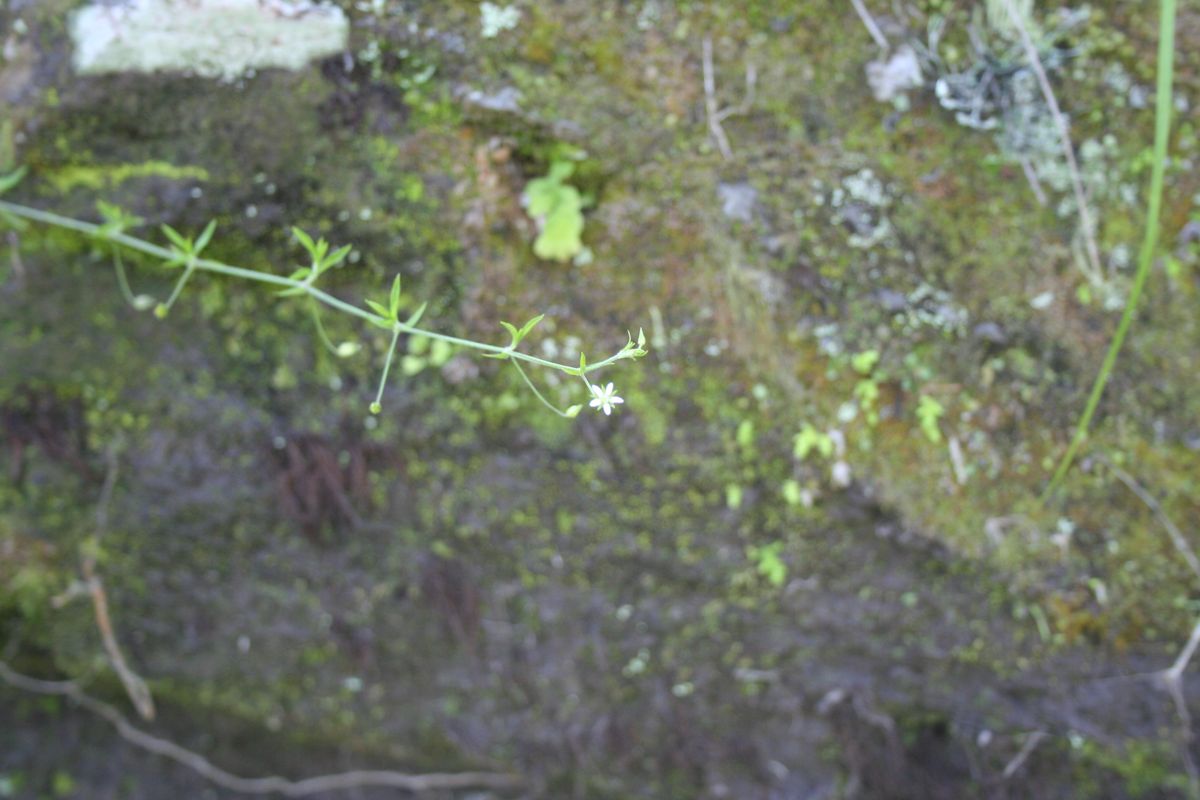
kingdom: Plantae
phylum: Tracheophyta
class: Magnoliopsida
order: Caryophyllales
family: Caryophyllaceae
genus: Arenaria
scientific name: Arenaria lanuginosa
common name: Spread sandwort
